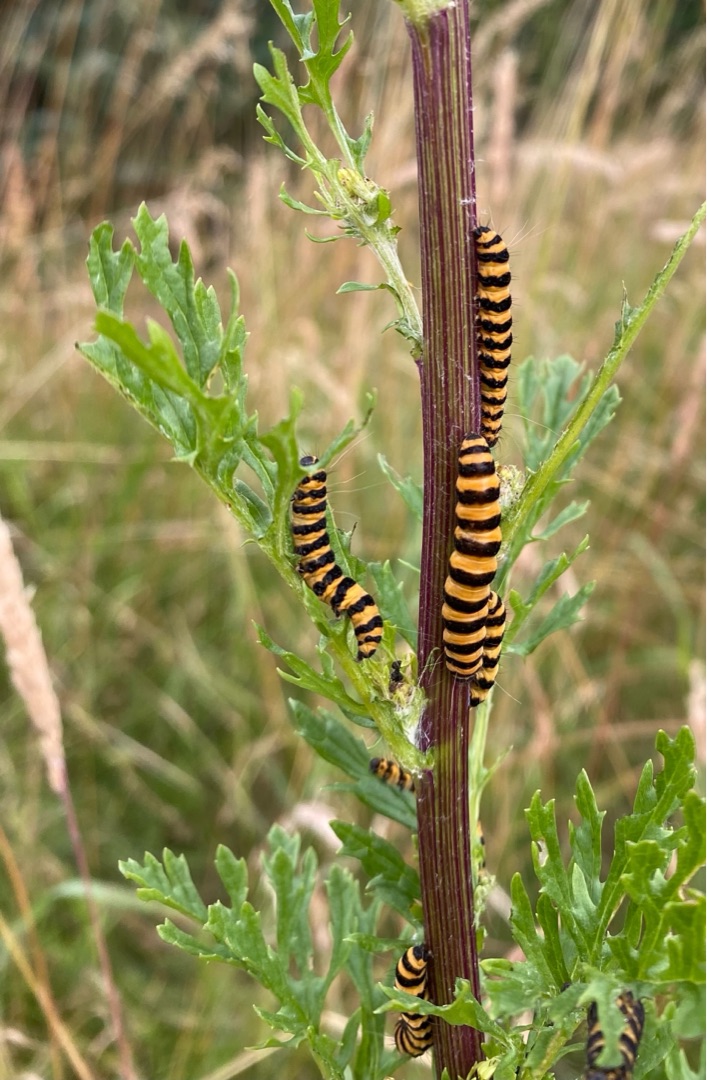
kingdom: Animalia
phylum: Arthropoda
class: Insecta
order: Lepidoptera
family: Erebidae
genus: Tyria
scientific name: Tyria jacobaeae
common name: Blodplet
